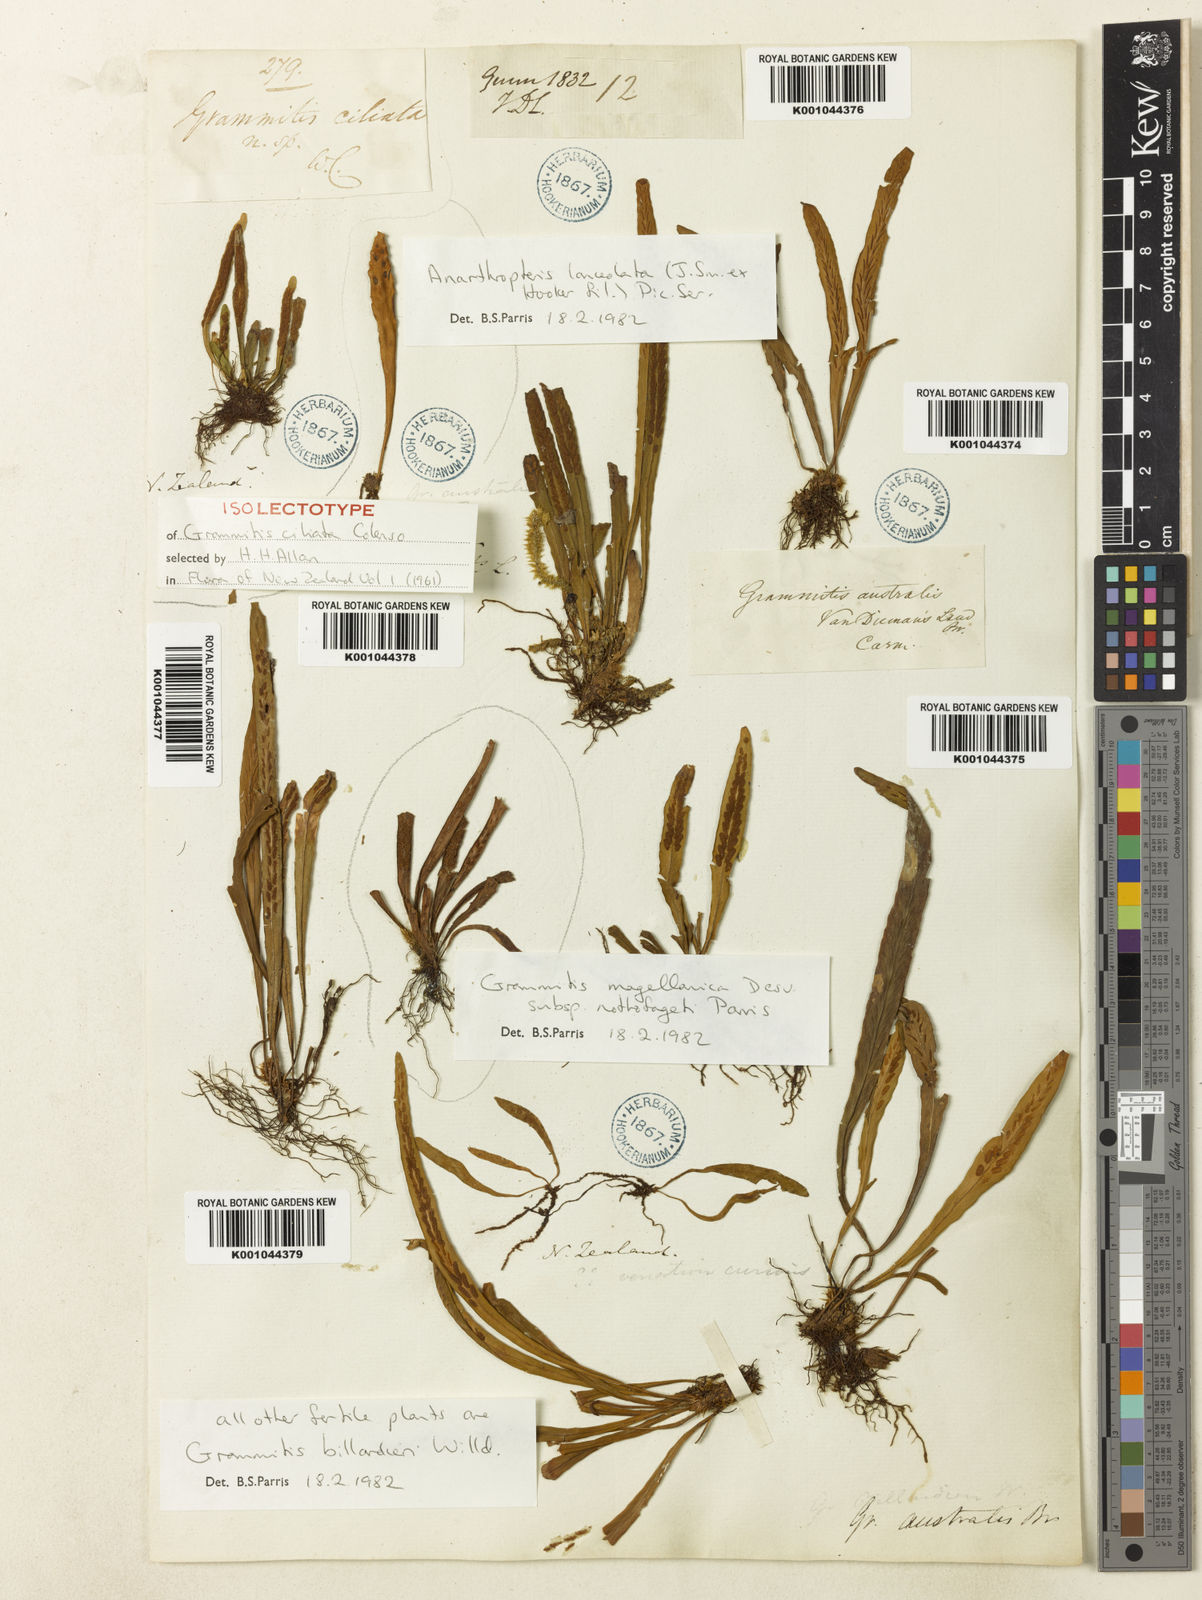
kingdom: Plantae
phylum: Tracheophyta
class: Polypodiopsida
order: Polypodiales
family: Polypodiaceae
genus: Notogrammitis
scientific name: Notogrammitis ciliata
